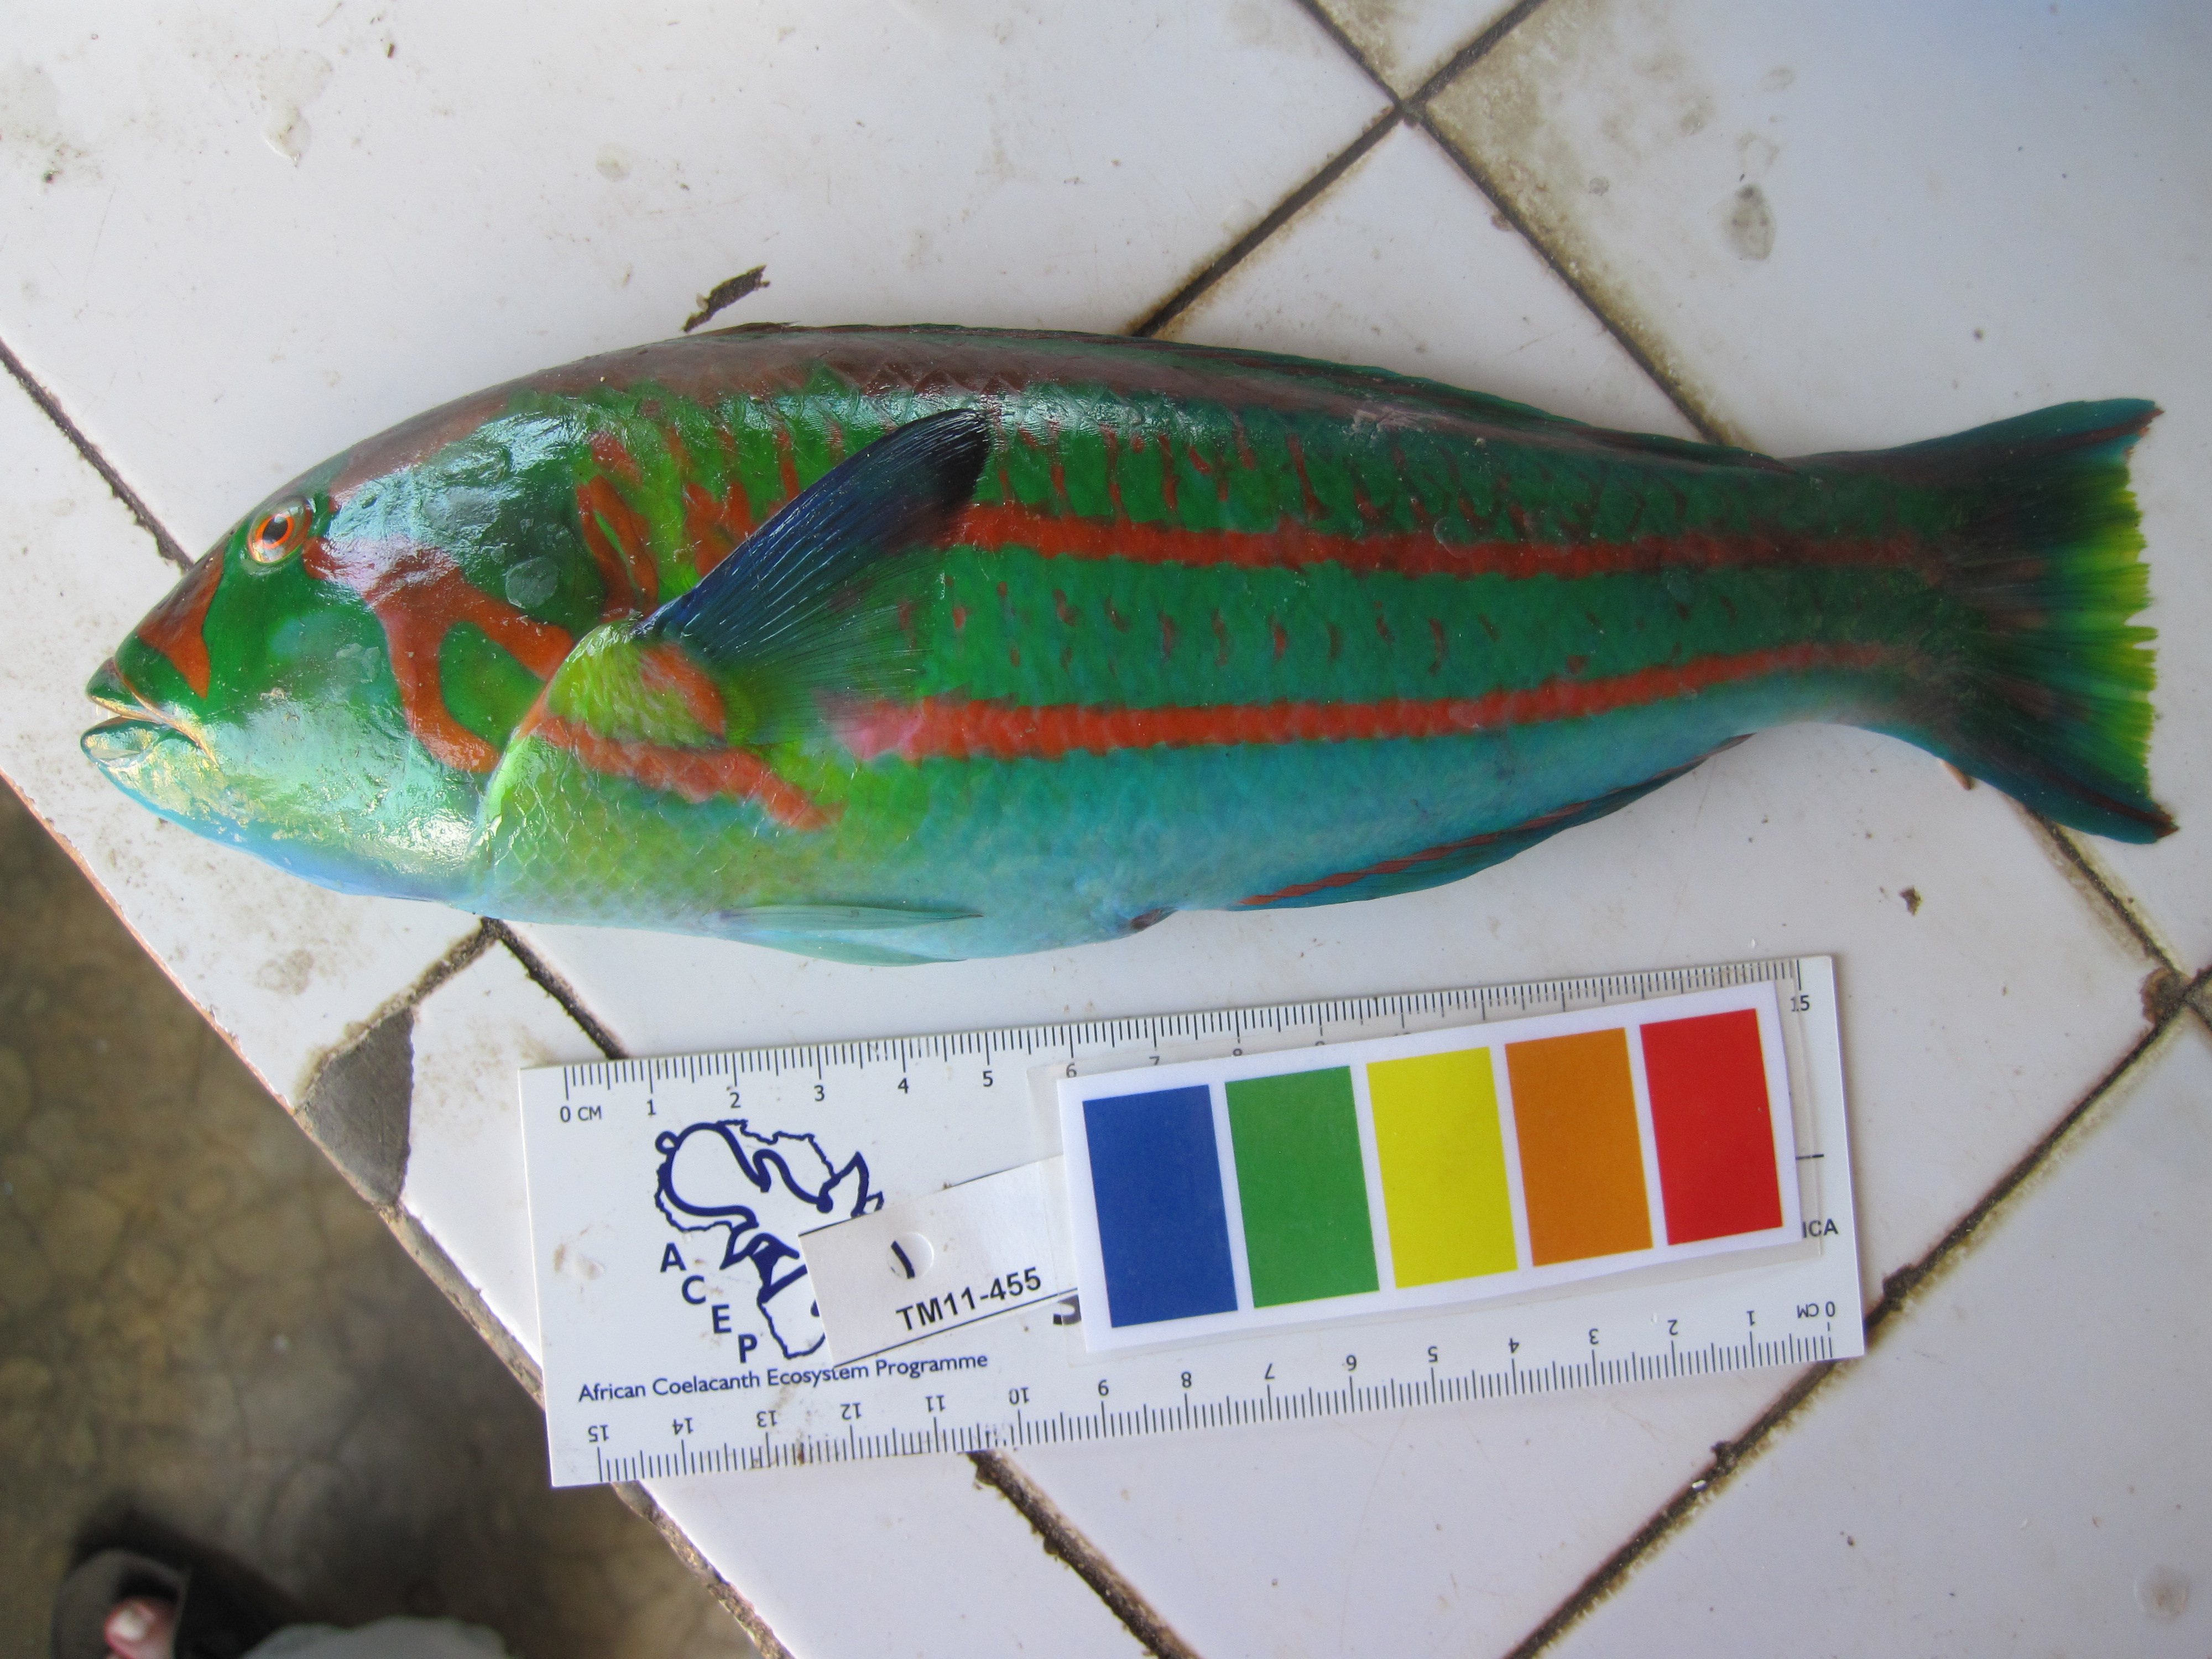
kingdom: Animalia
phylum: Chordata
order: Perciformes
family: Labridae
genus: Thalassoma
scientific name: Thalassoma purpureum
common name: Parrotfish
